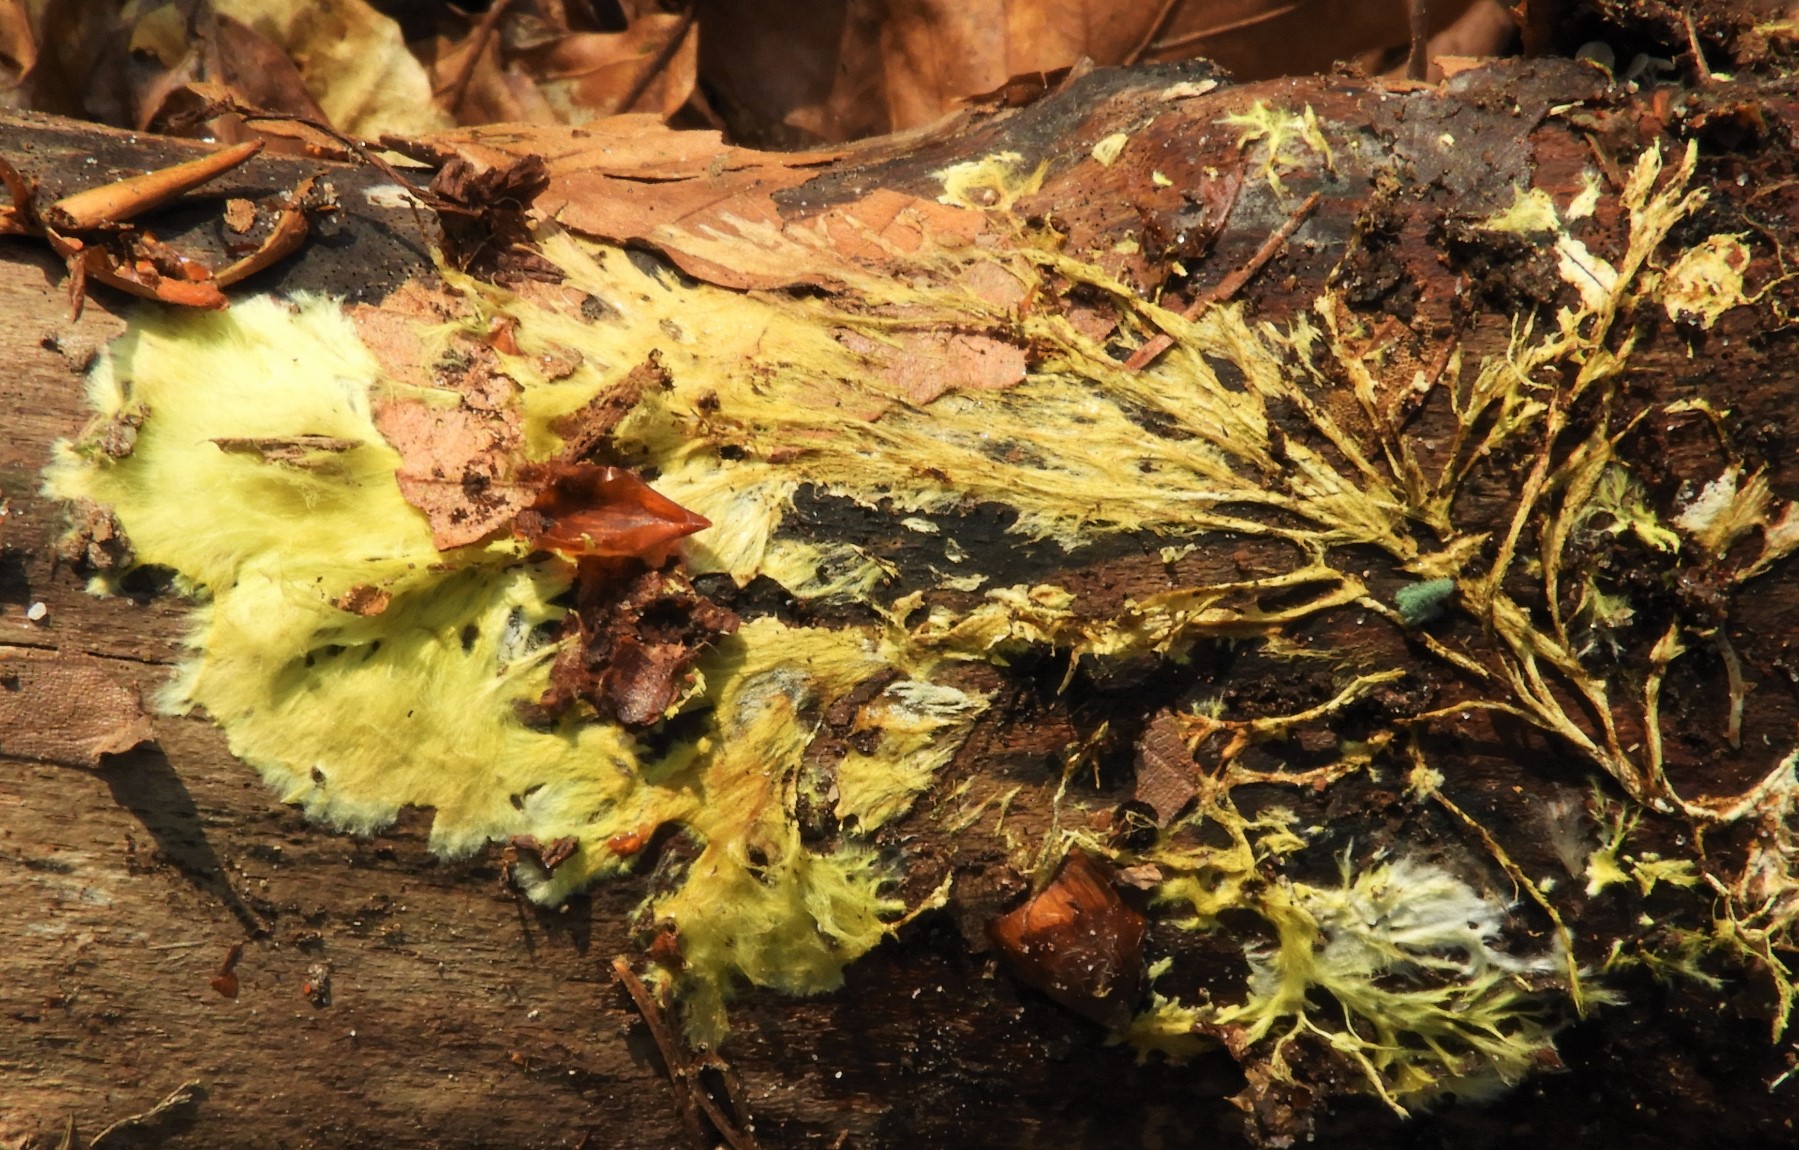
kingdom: Fungi
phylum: Basidiomycota
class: Agaricomycetes
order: Russulales
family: Xenasmataceae
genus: Xenasmatella
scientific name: Xenasmatella vaga
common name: svovl-strenghinde
